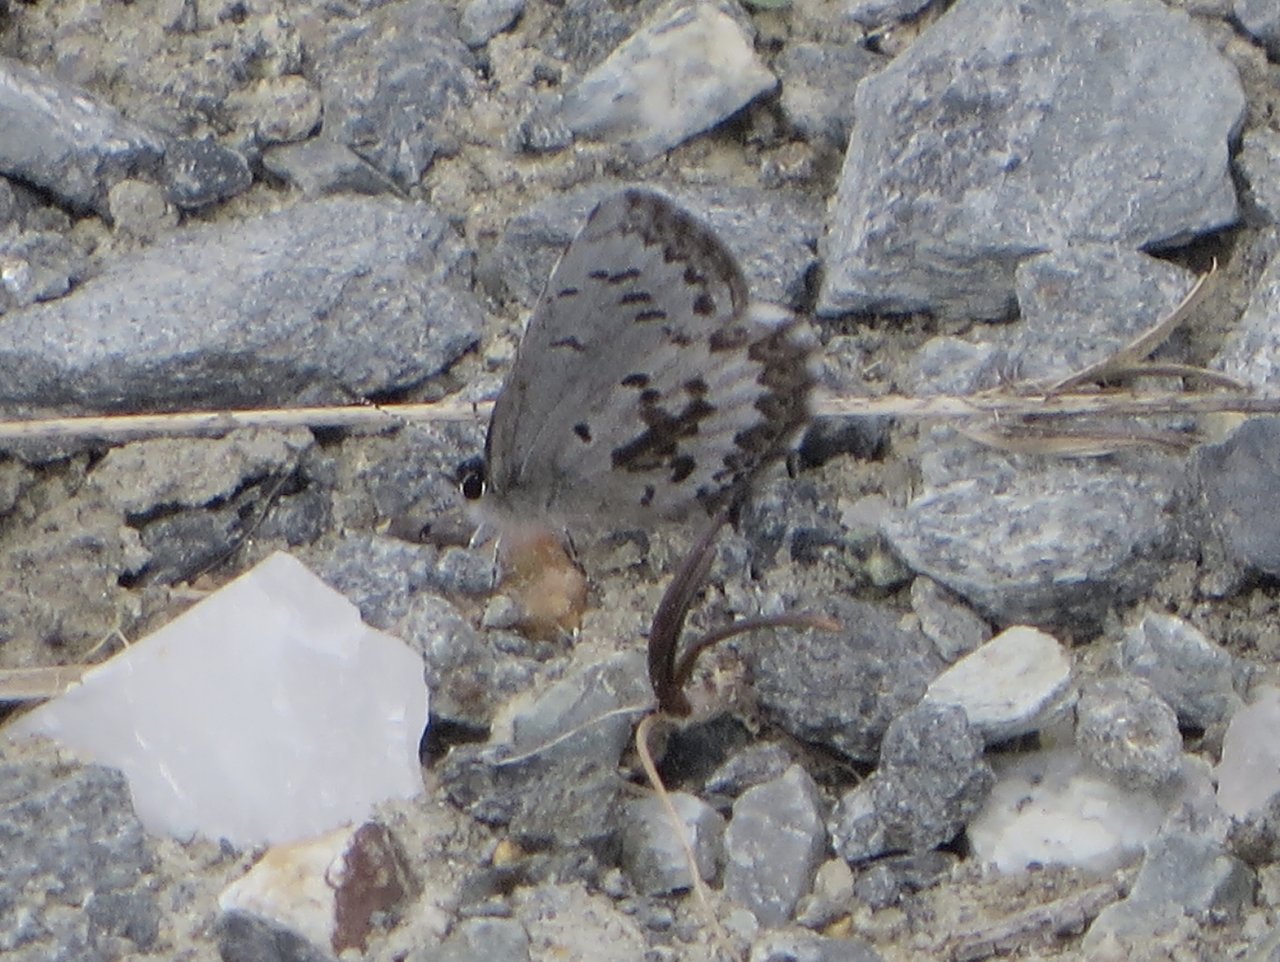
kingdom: Animalia
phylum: Arthropoda
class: Insecta
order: Lepidoptera
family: Lycaenidae
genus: Celastrina
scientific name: Celastrina ladon
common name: Spring Azure
